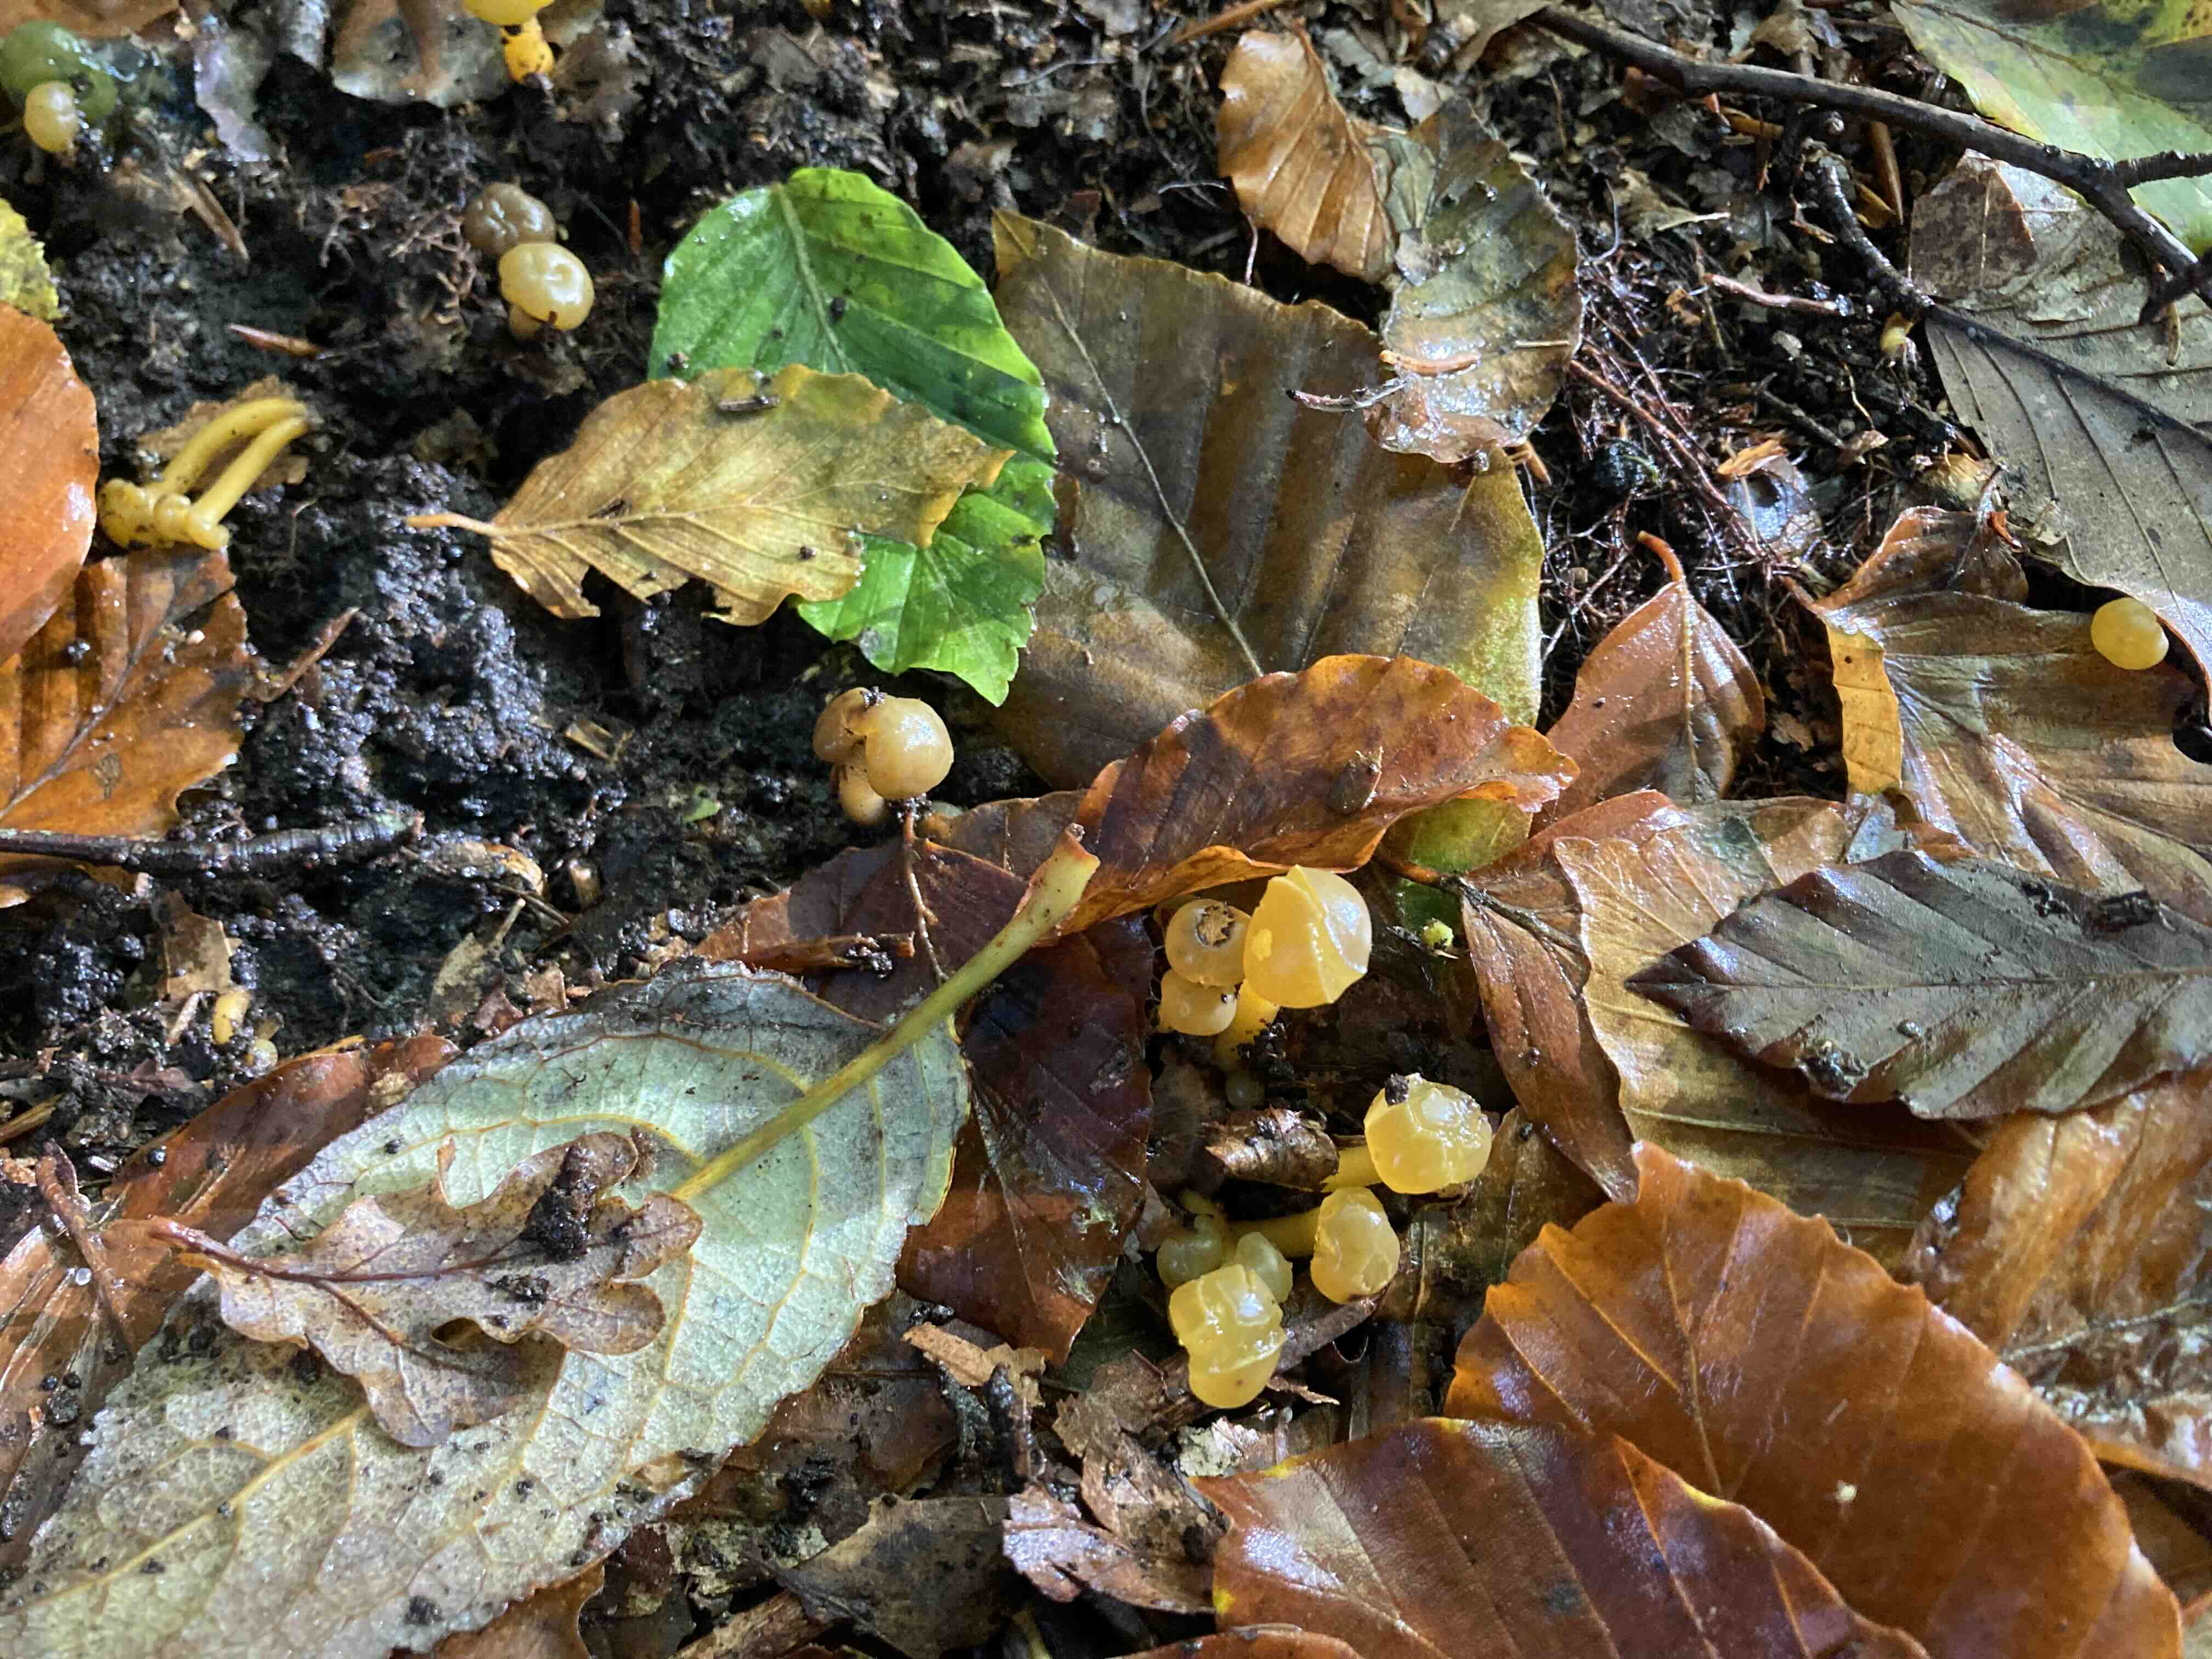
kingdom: Fungi
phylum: Ascomycota
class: Leotiomycetes
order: Leotiales
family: Leotiaceae
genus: Leotia
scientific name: Leotia lubrica
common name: ravsvamp
